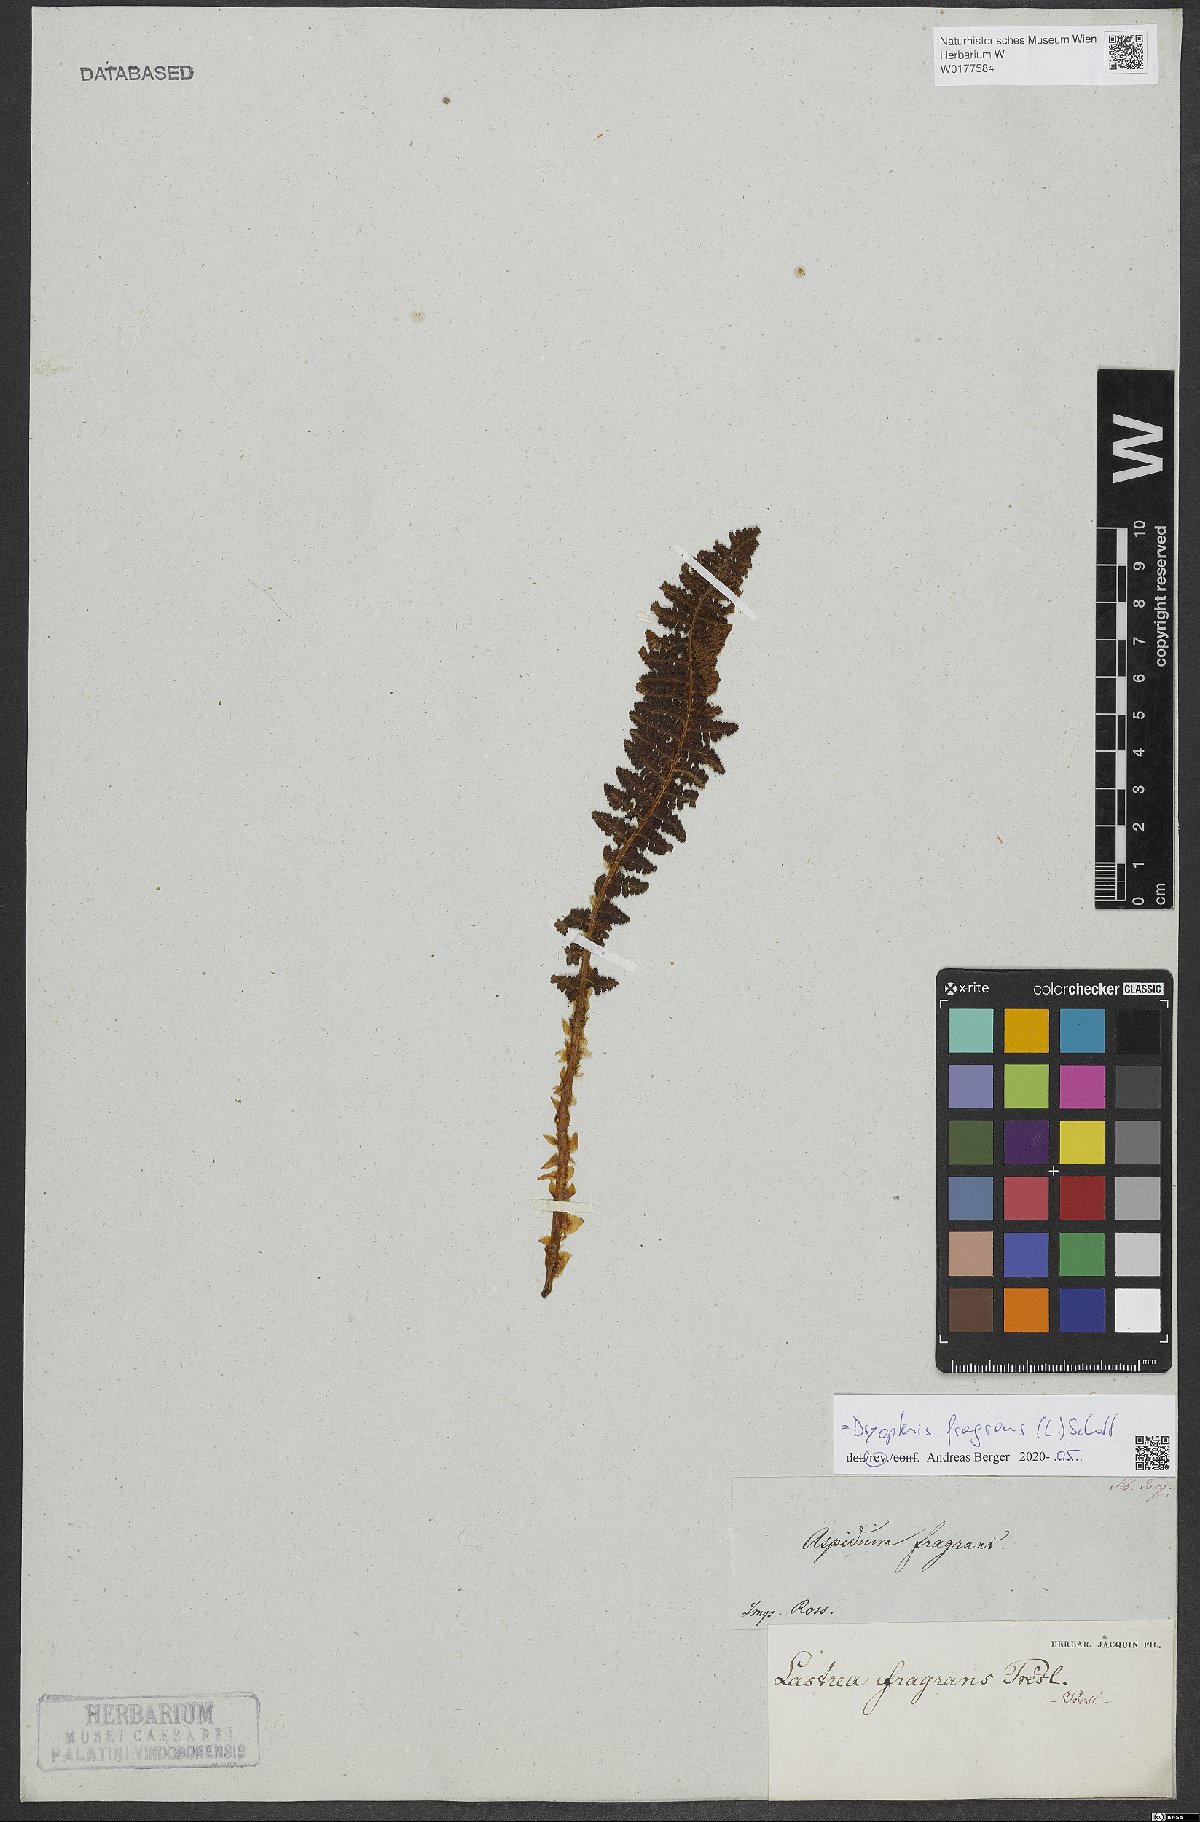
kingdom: Plantae
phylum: Tracheophyta
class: Polypodiopsida
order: Polypodiales
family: Dryopteridaceae
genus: Dryopteris
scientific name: Dryopteris fragrans
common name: Fragrant wood fern
